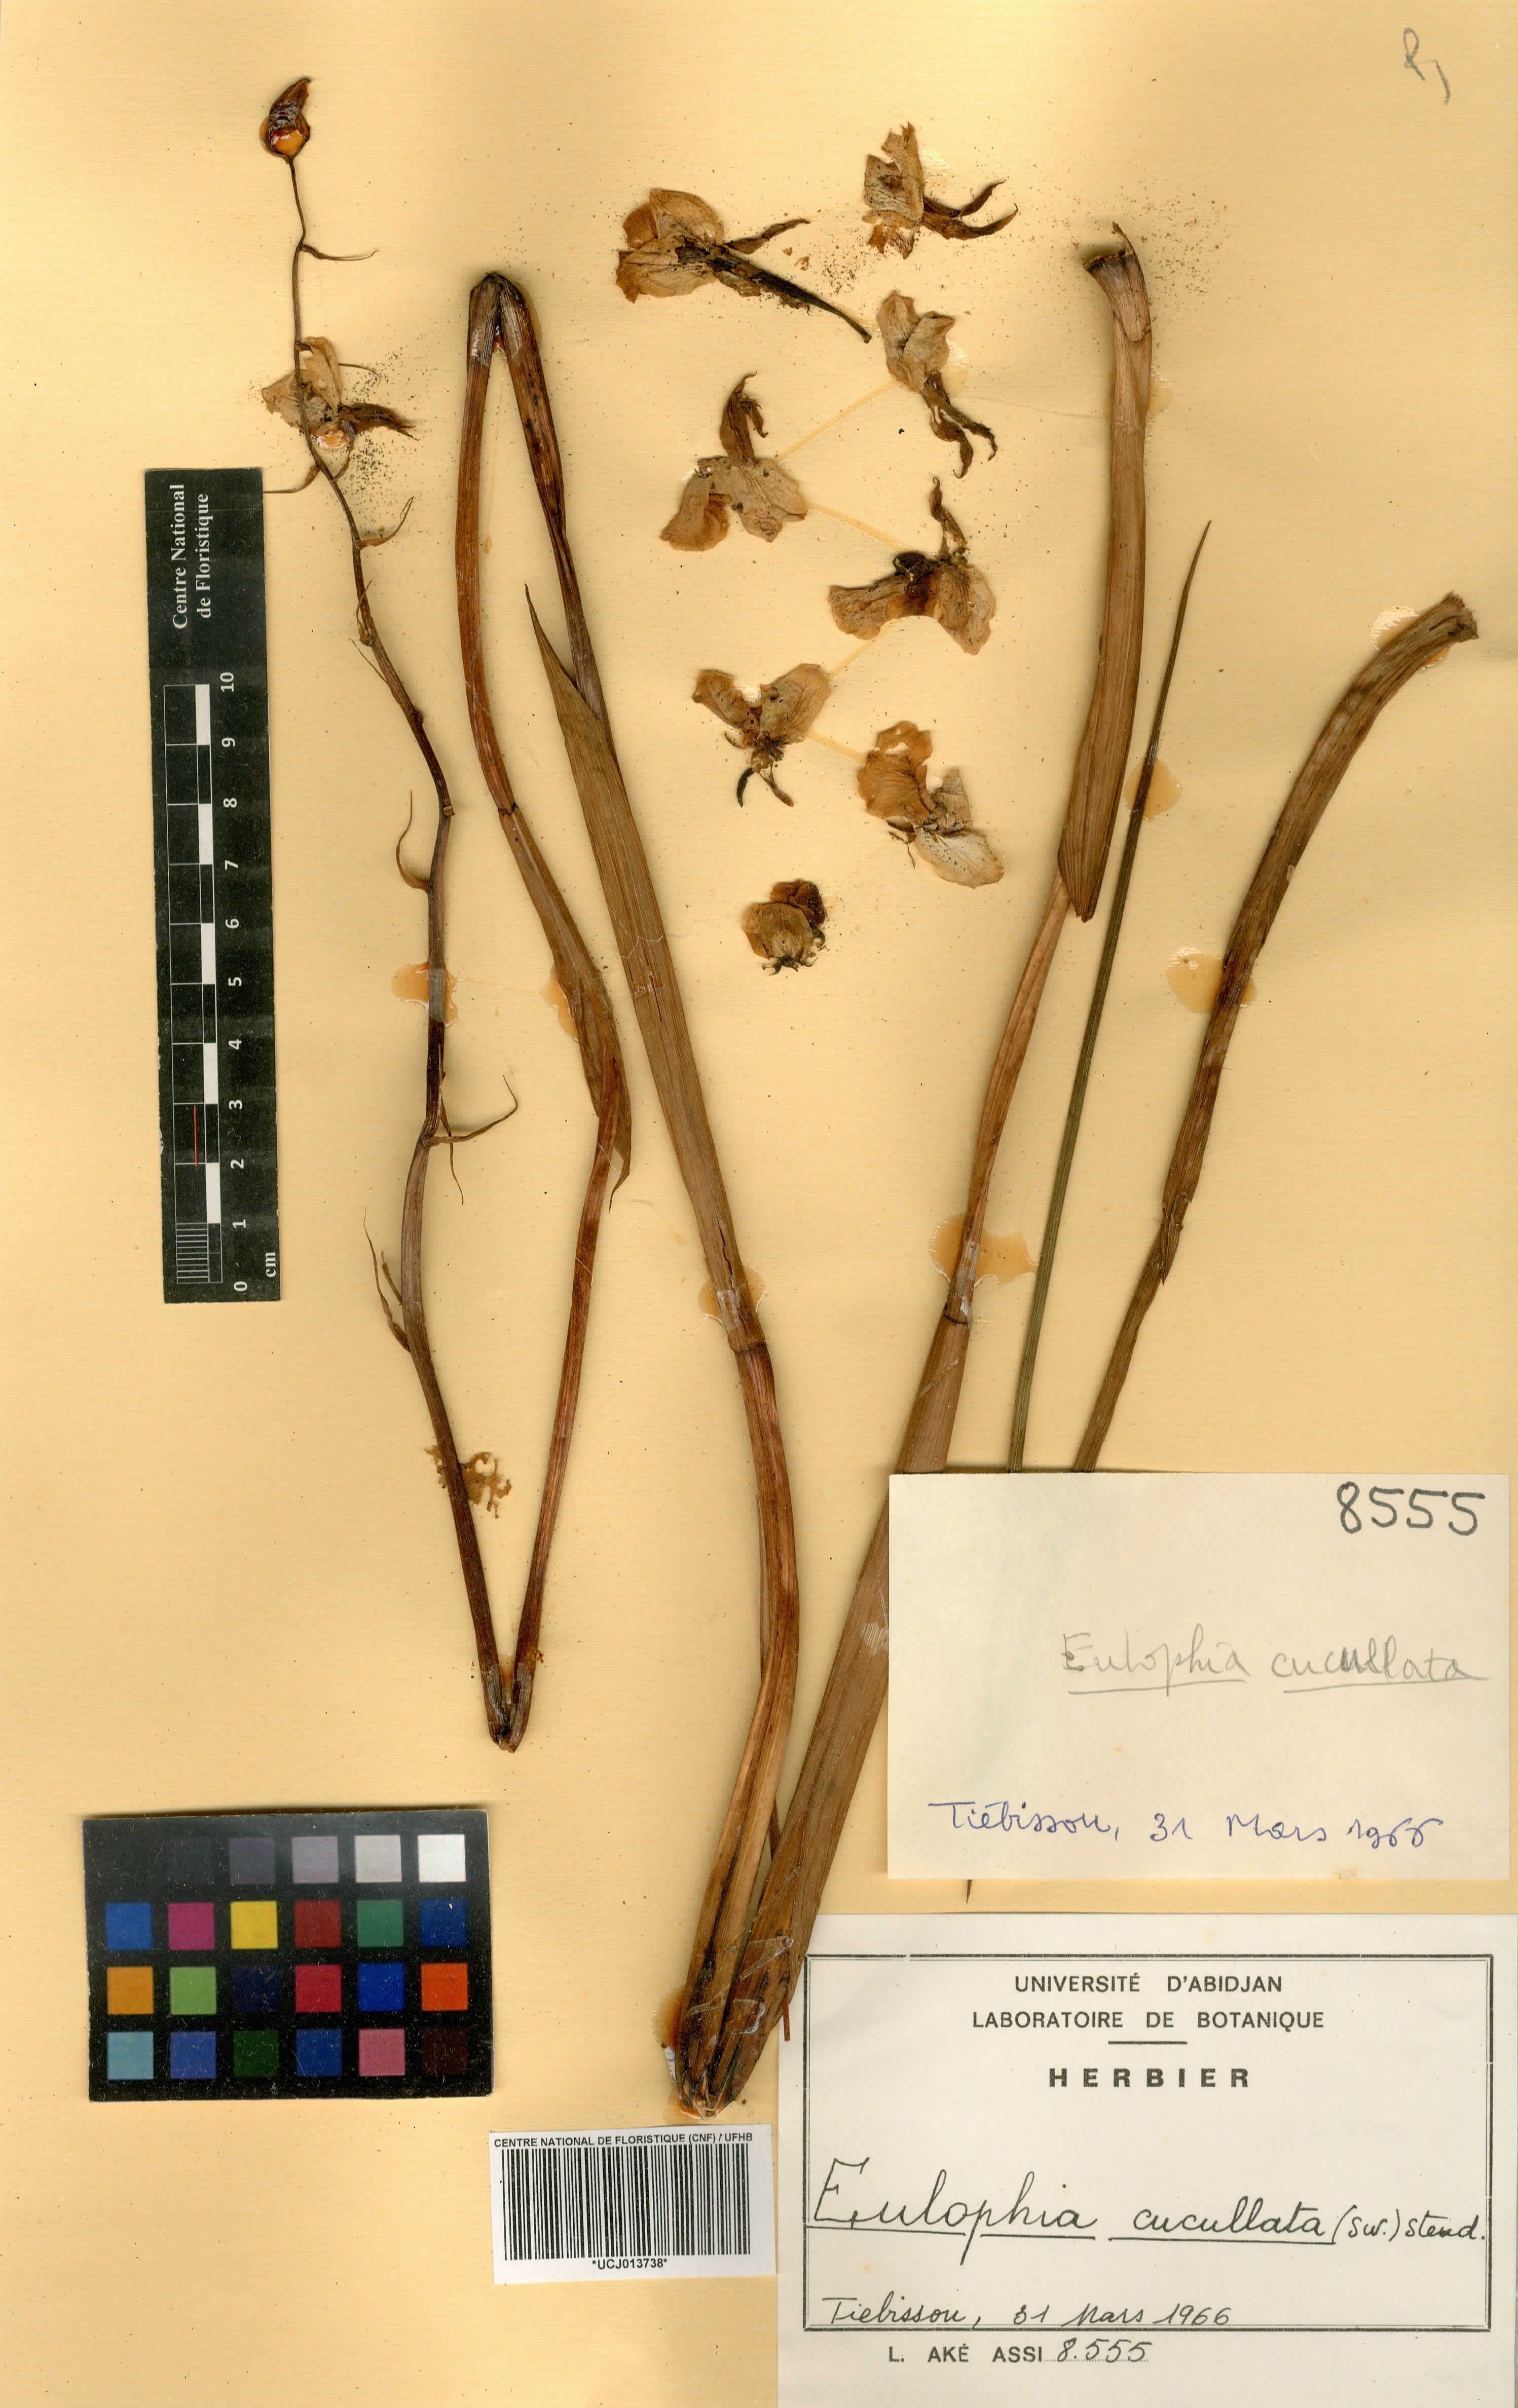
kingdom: Plantae
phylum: Tracheophyta
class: Liliopsida
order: Asparagales
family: Orchidaceae
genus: Eulophia
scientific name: Eulophia cucullata
